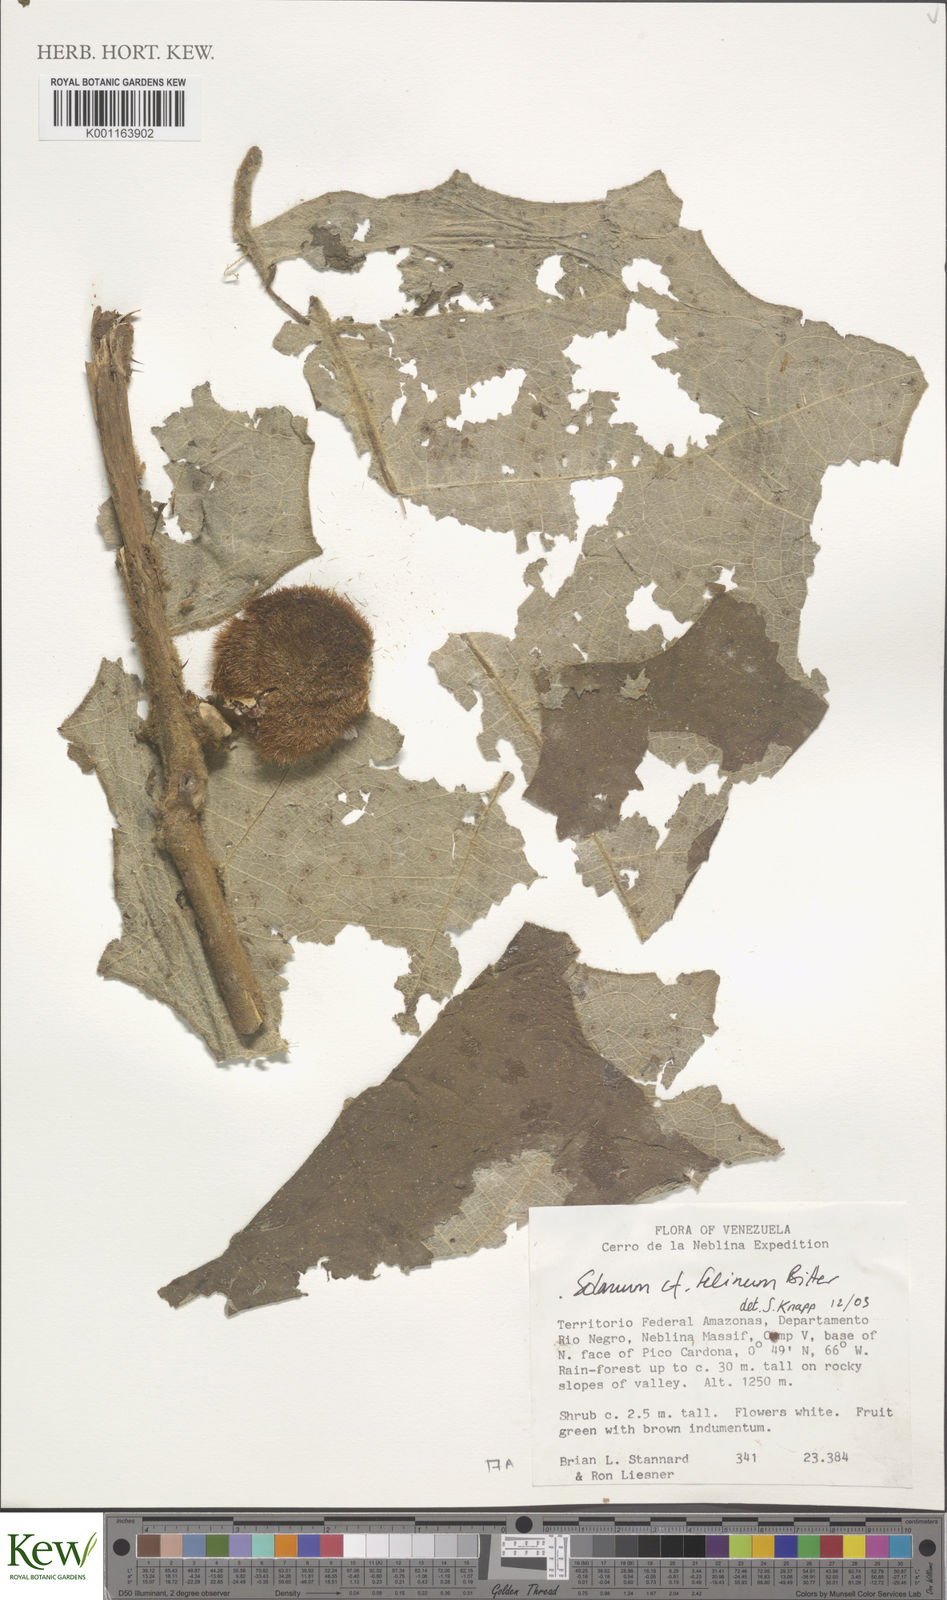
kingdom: Plantae
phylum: Tracheophyta
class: Magnoliopsida
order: Solanales
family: Solanaceae
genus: Solanum
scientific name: Solanum felinum
